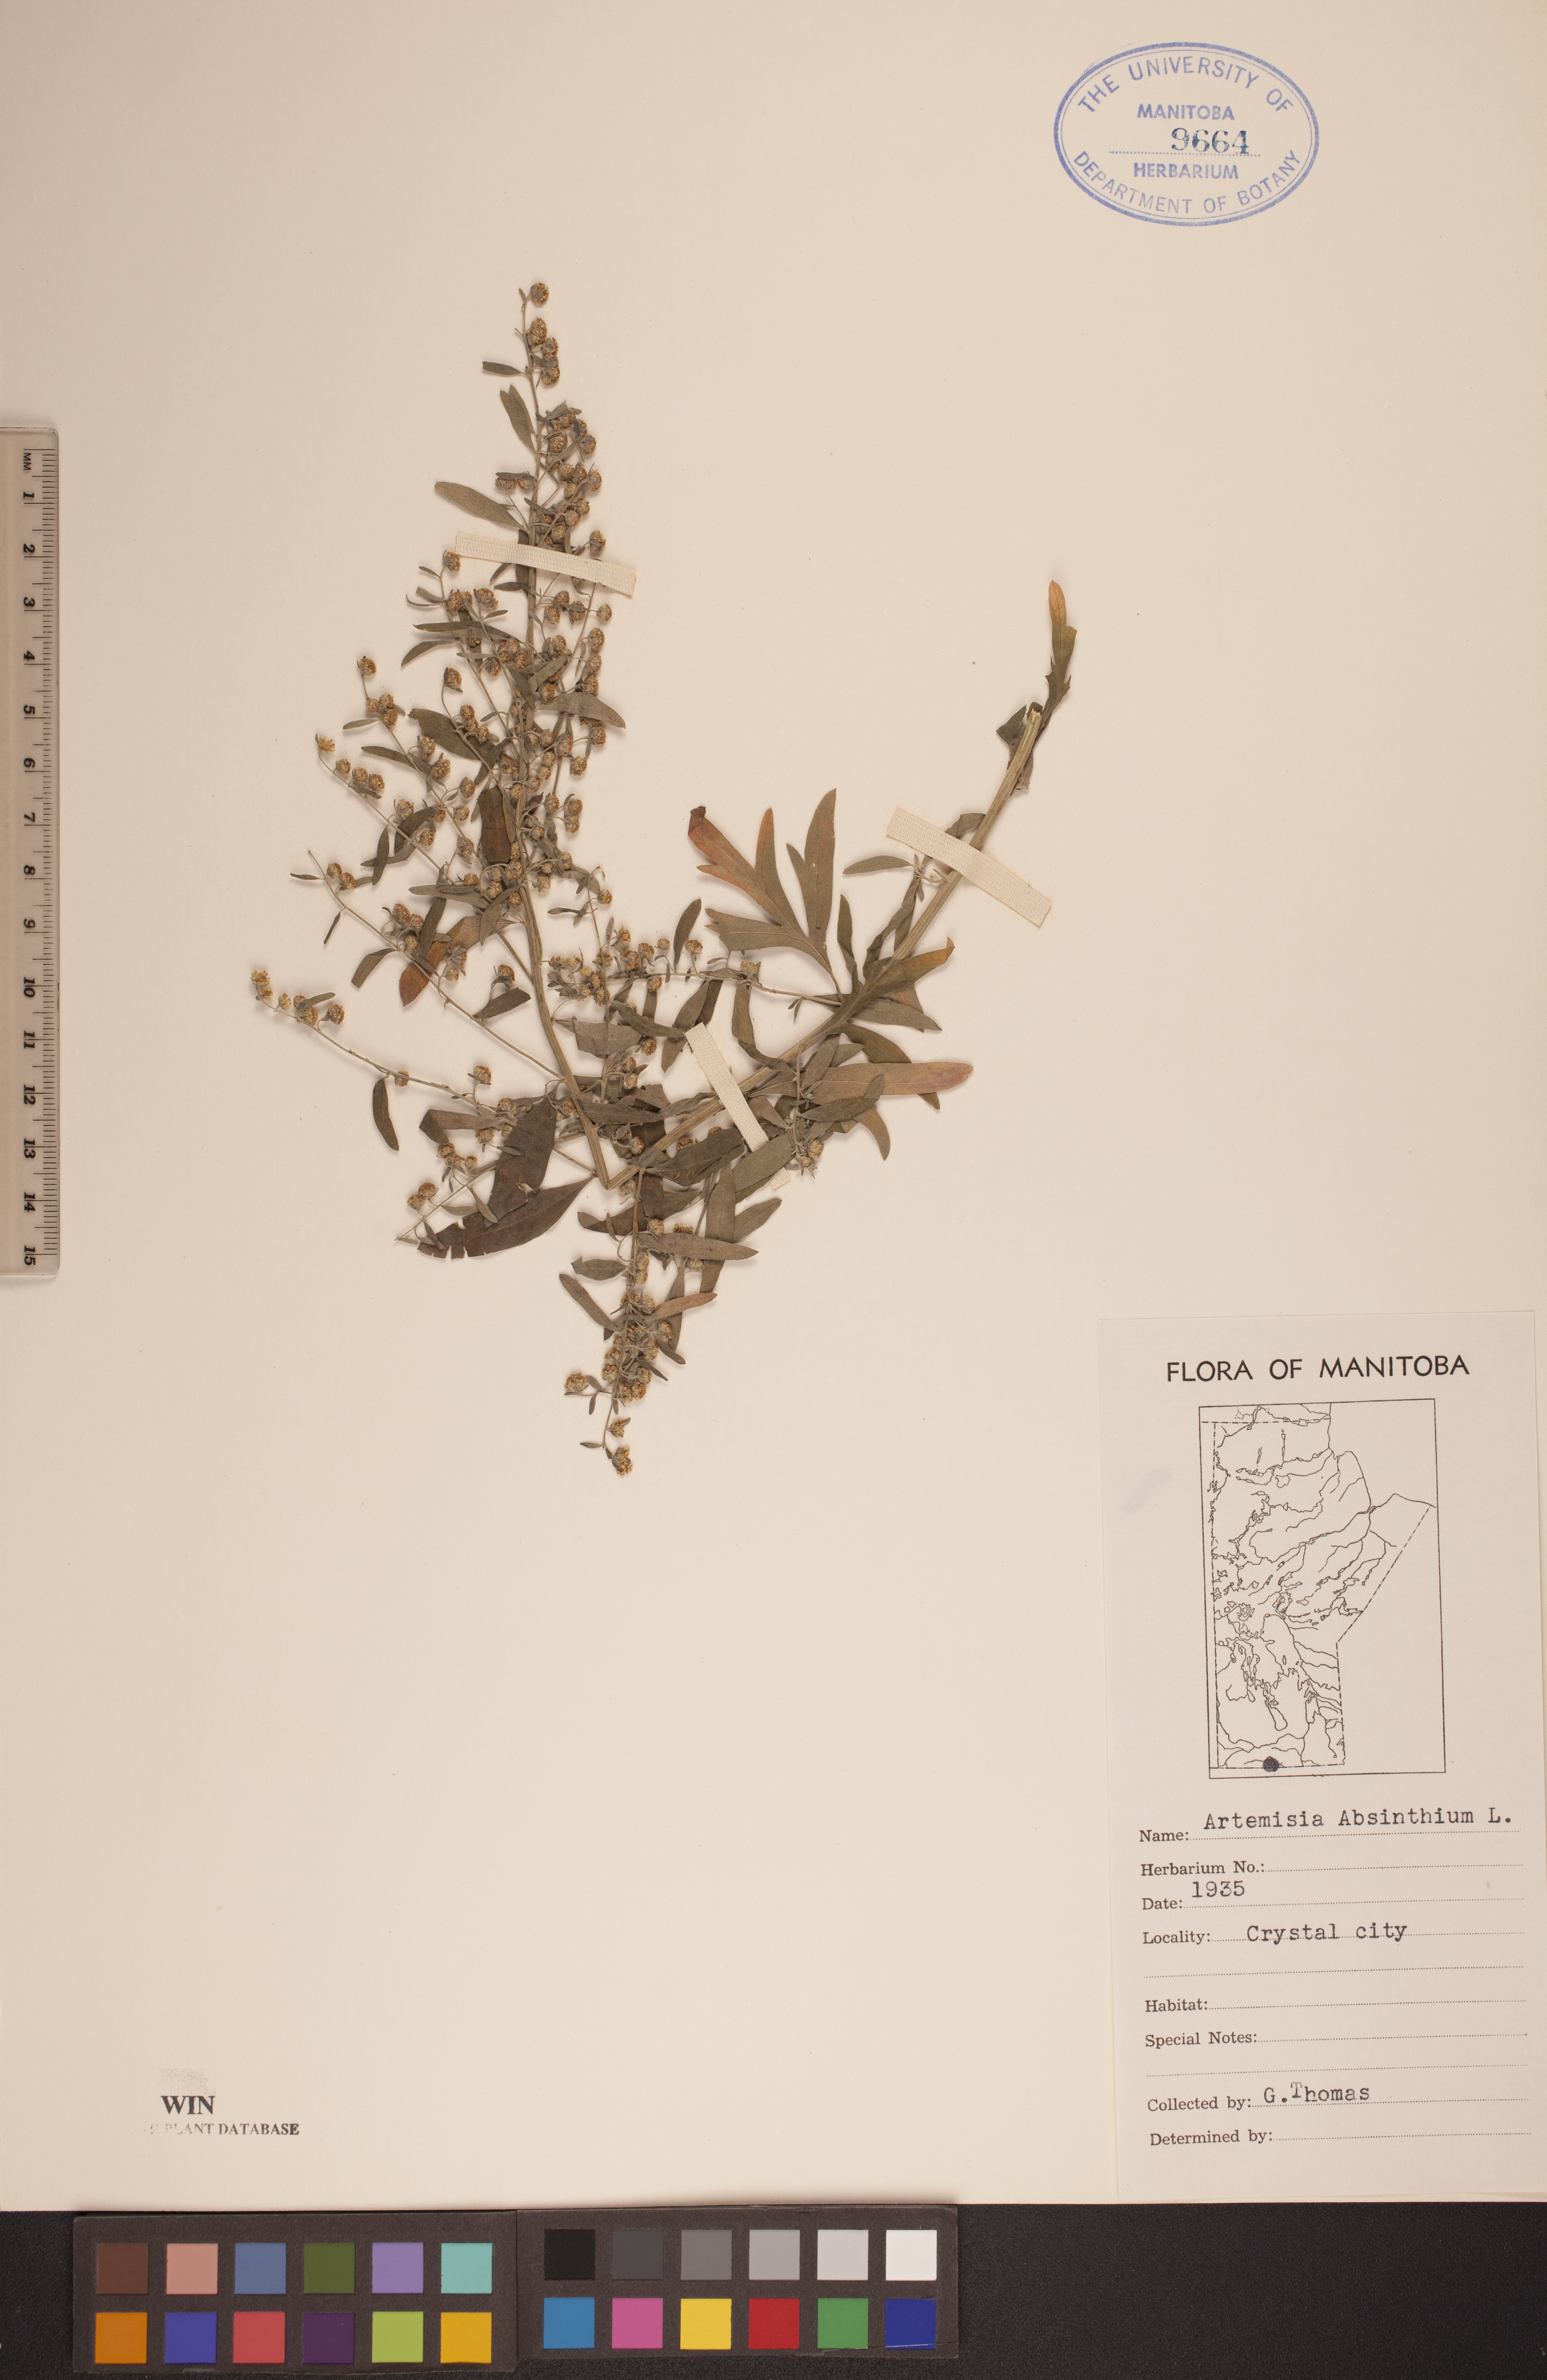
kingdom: Plantae
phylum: Tracheophyta
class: Magnoliopsida
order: Asterales
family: Asteraceae
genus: Artemisia
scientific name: Artemisia absinthium
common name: Wormwood
